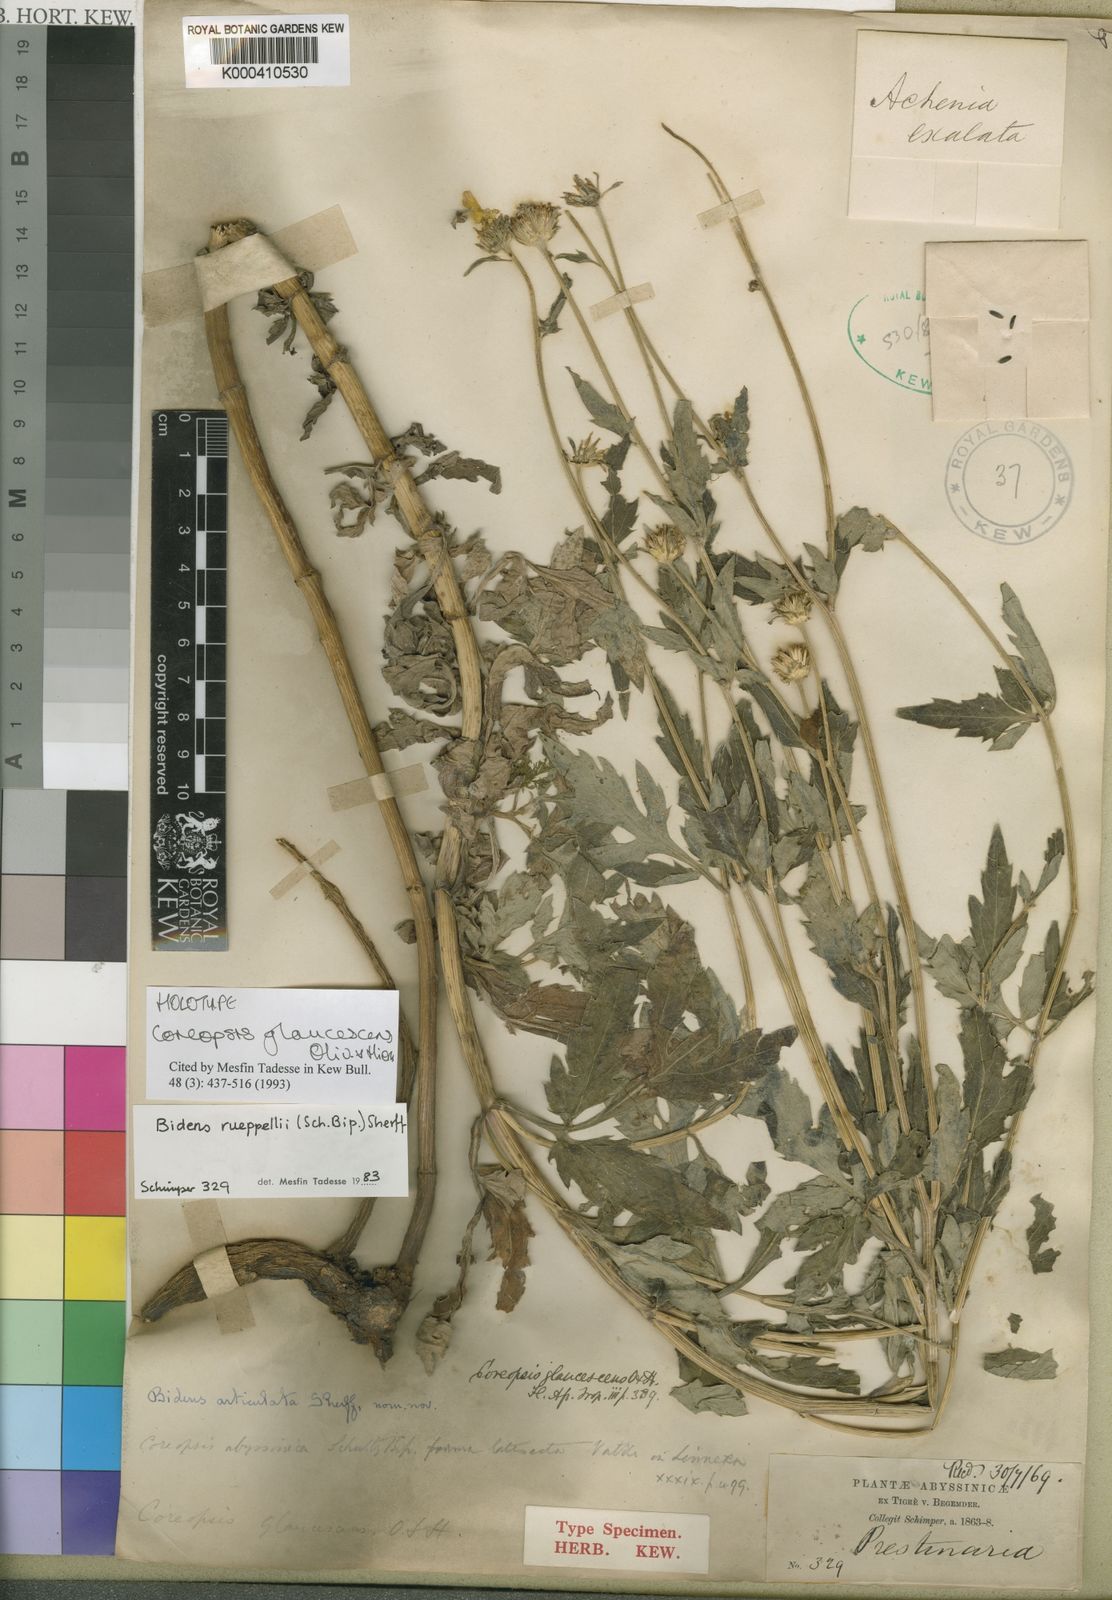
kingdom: Plantae
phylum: Tracheophyta
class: Magnoliopsida
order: Asterales
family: Asteraceae
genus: Bidens
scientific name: Bidens rueppellii
